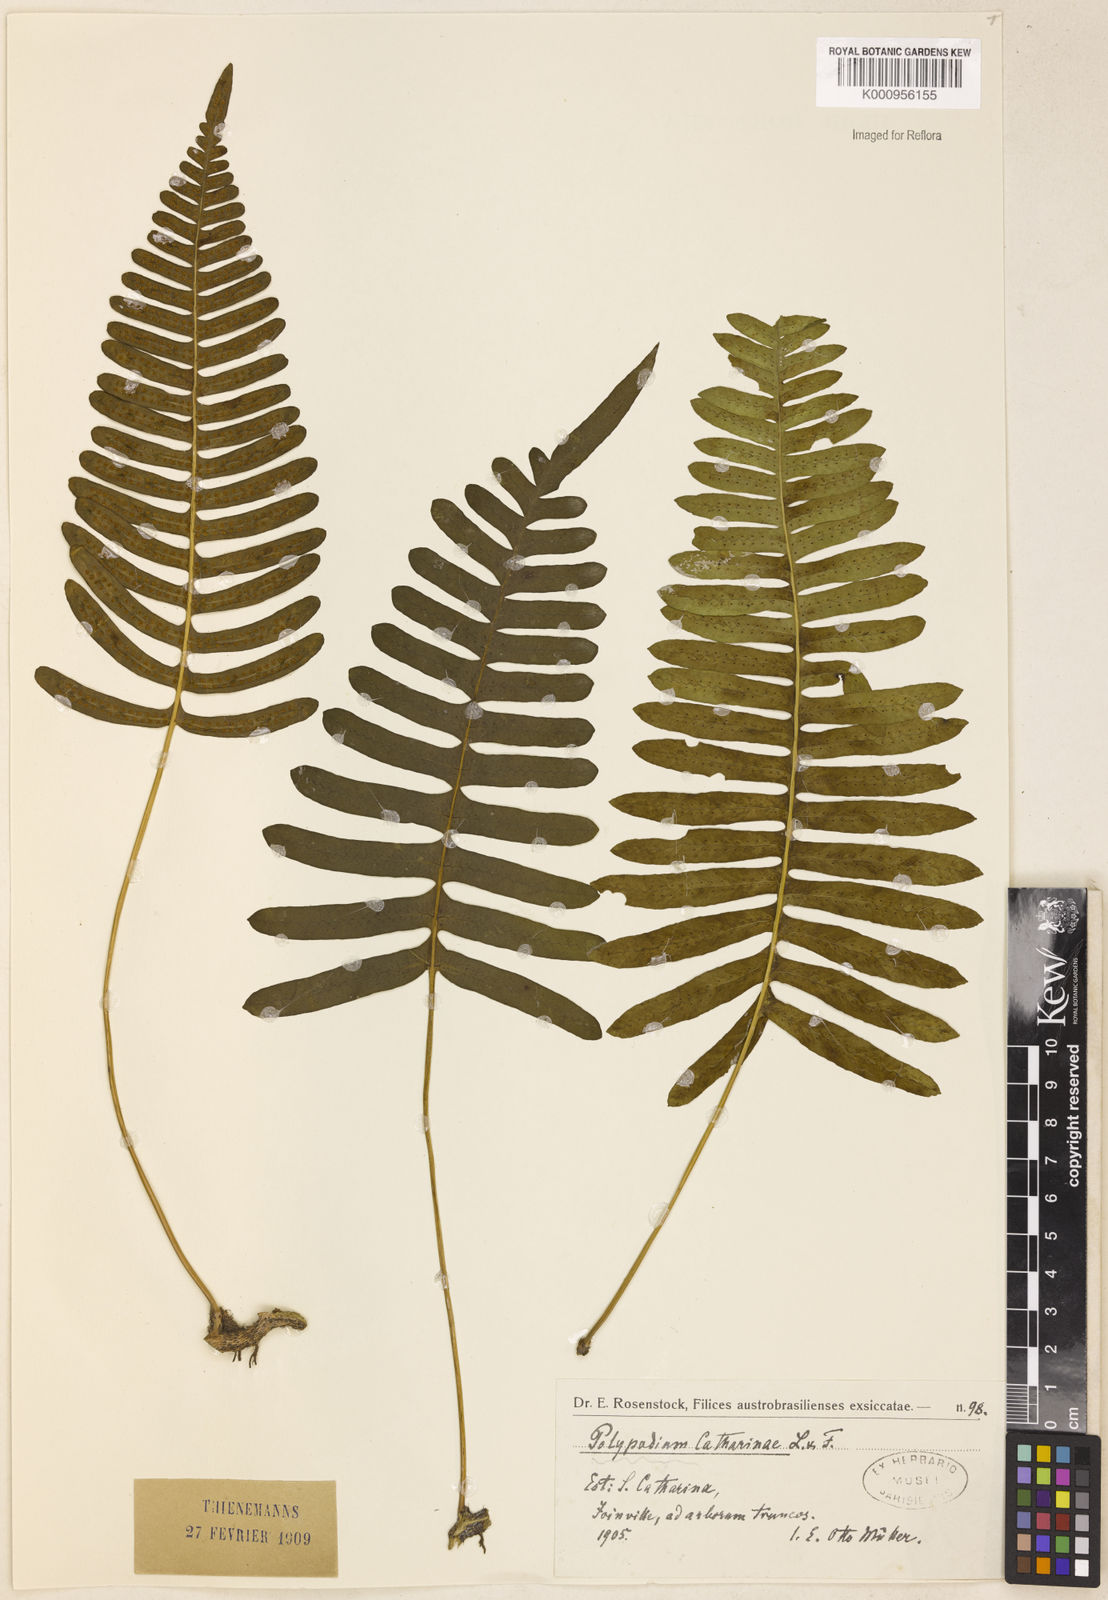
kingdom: Plantae
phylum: Tracheophyta
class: Polypodiopsida
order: Polypodiales
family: Polypodiaceae
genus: Serpocaulon
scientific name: Serpocaulon catharinae
